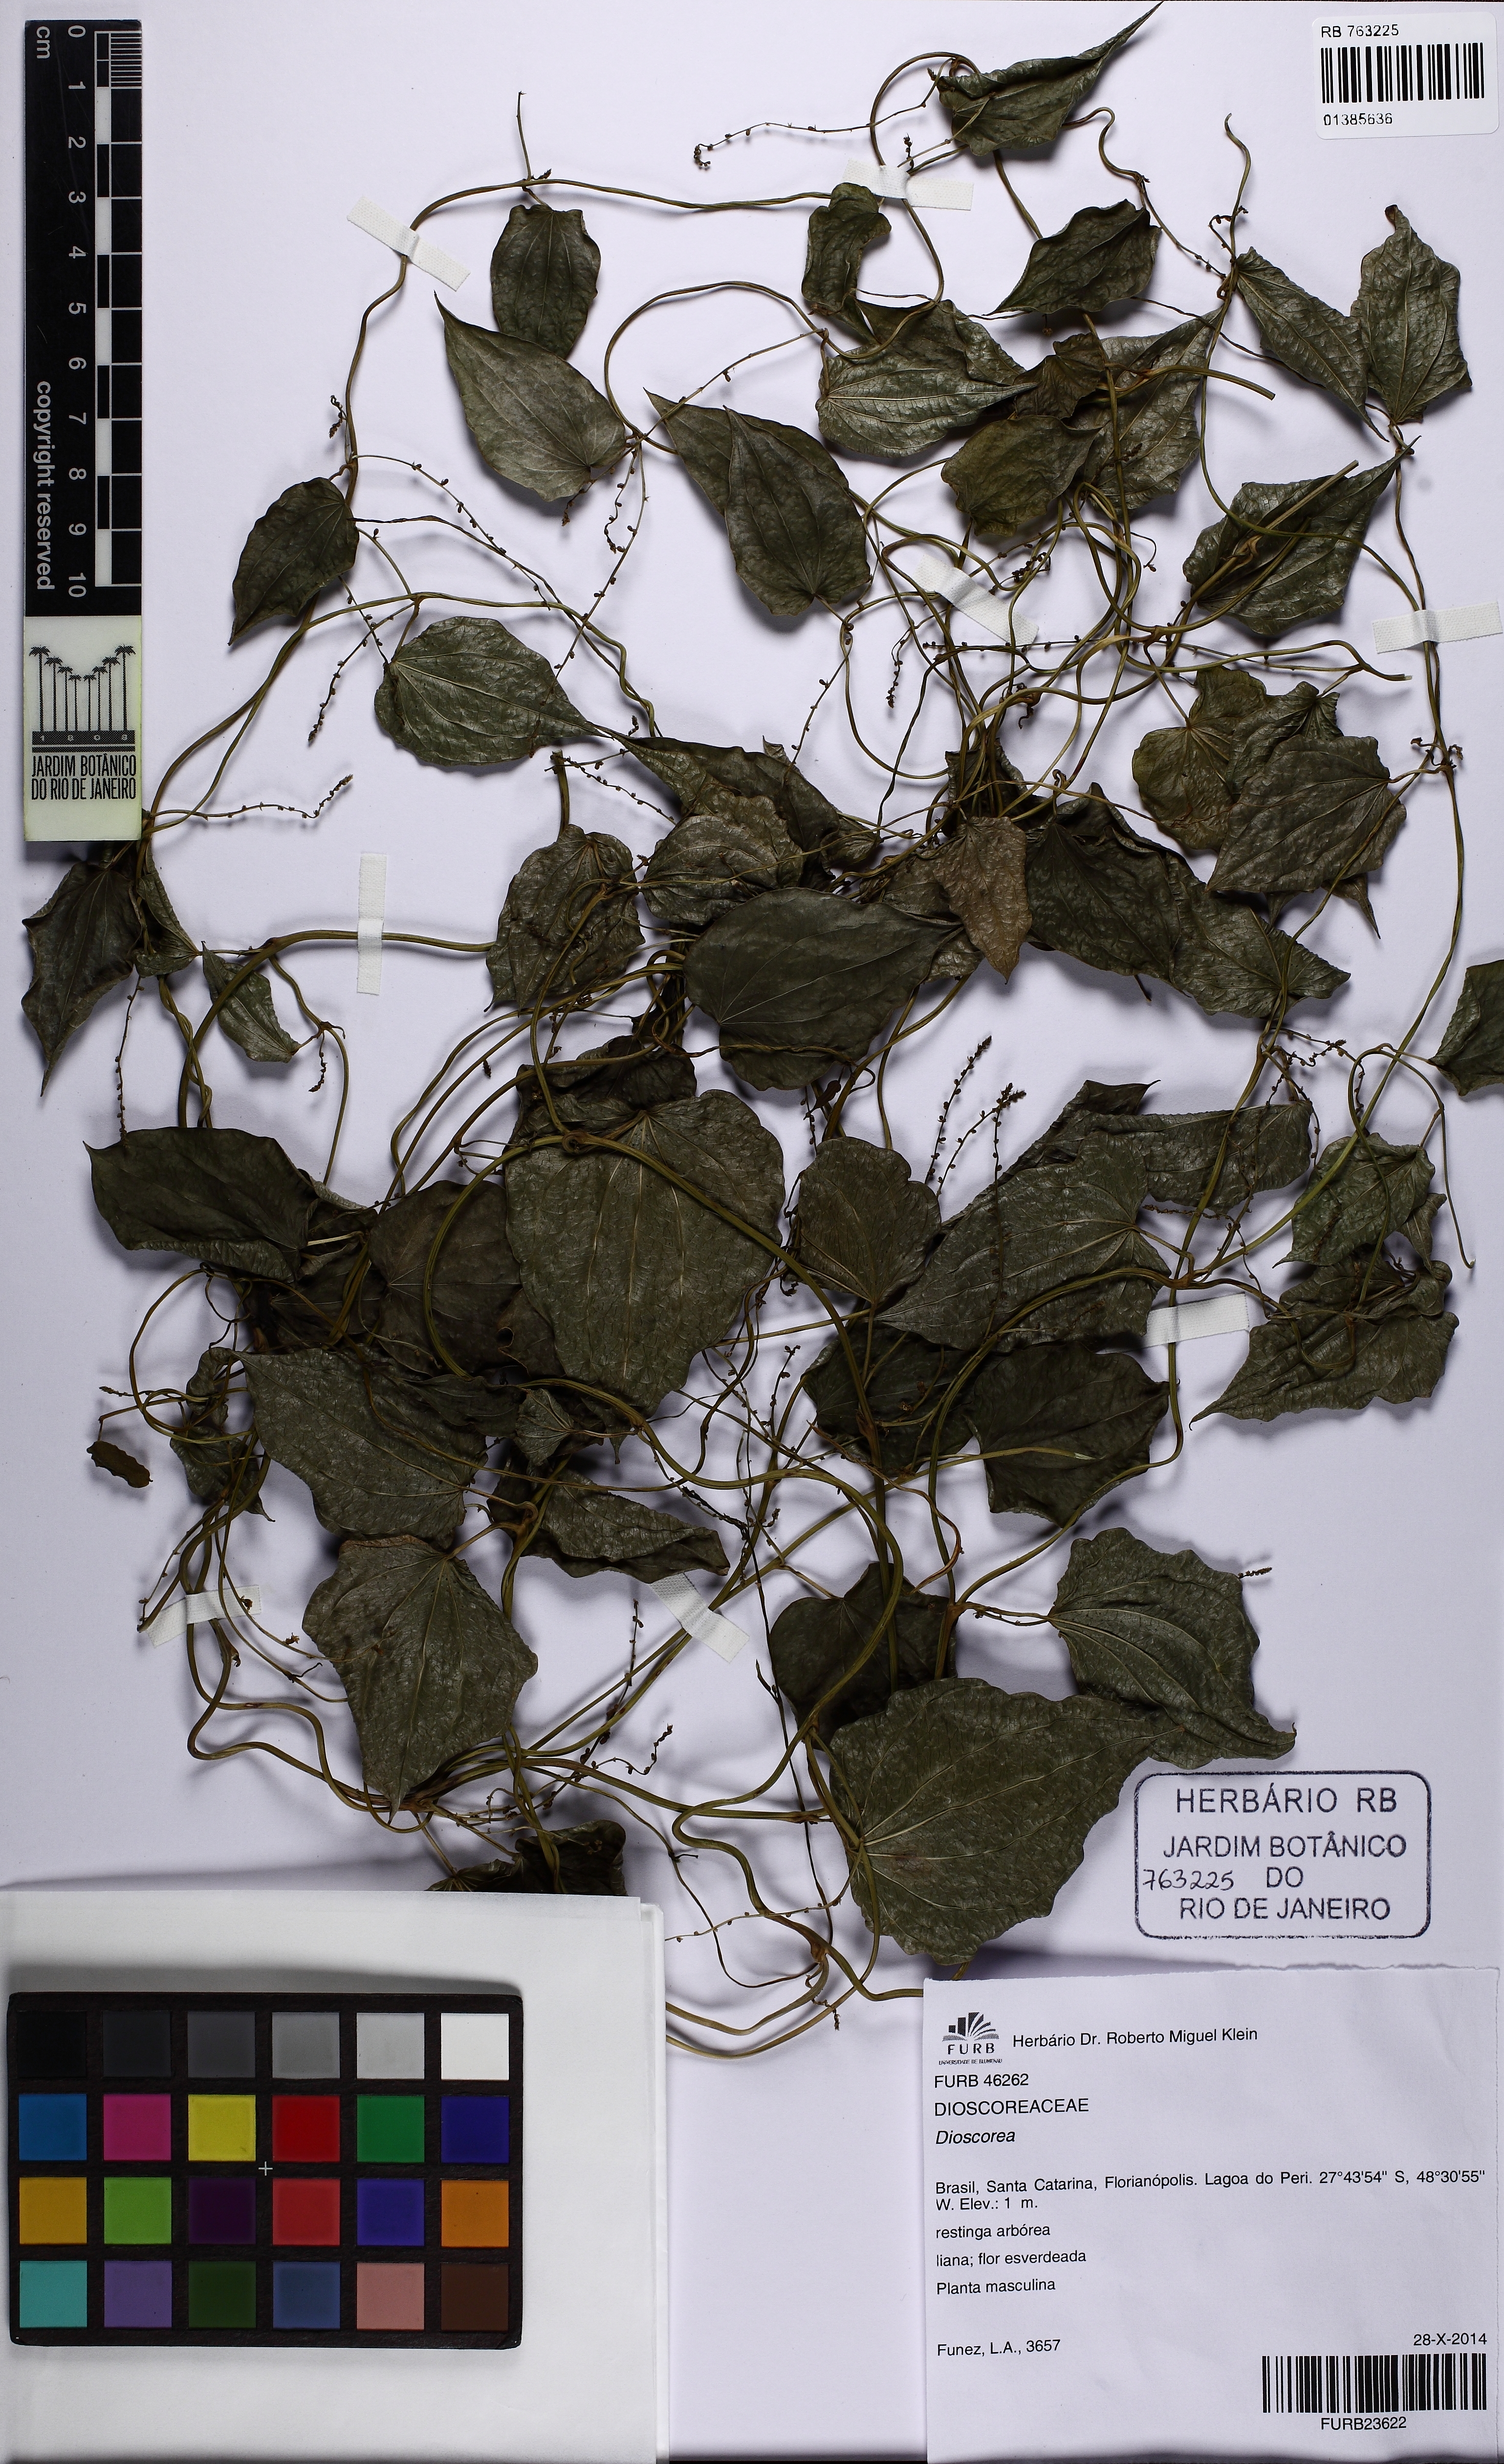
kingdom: Plantae
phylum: Tracheophyta
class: Liliopsida
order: Dioscoreales
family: Dioscoreaceae
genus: Dioscorea
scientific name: Dioscorea
